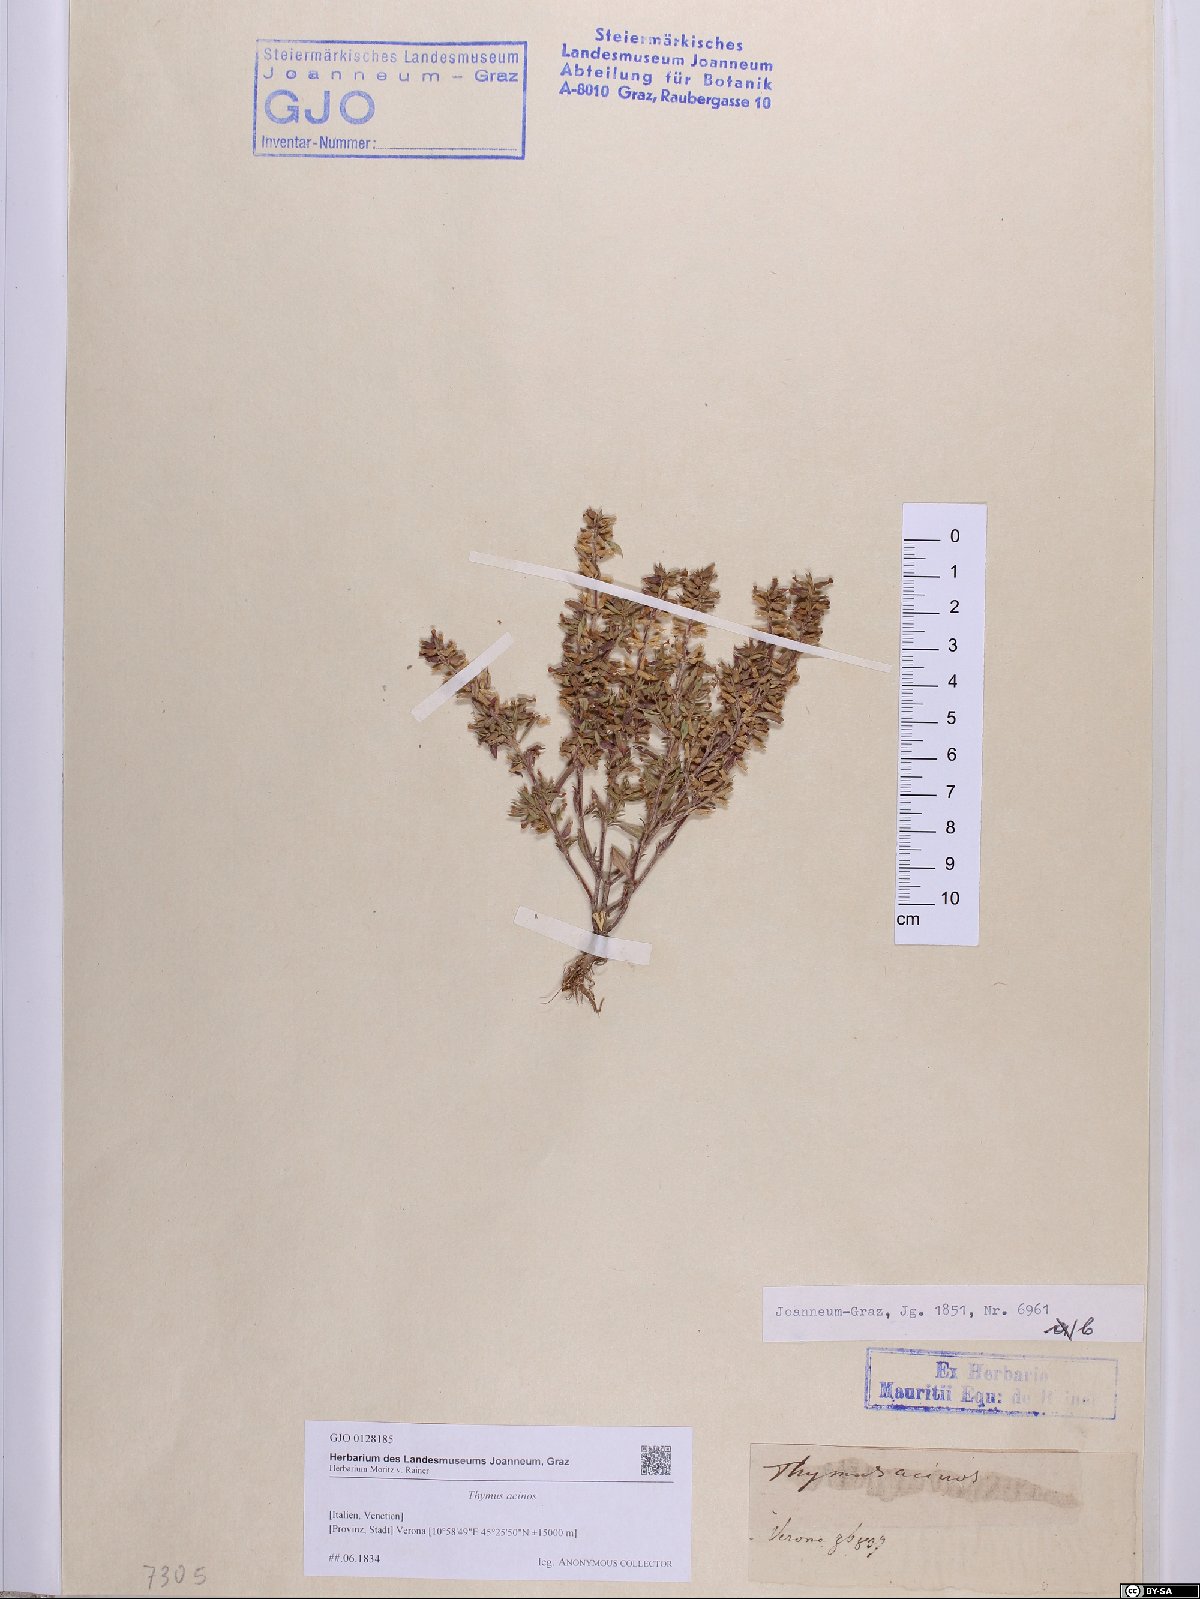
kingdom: Plantae
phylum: Tracheophyta
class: Magnoliopsida
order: Lamiales
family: Lamiaceae
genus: Clinopodium
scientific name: Clinopodium acinos
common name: Basil thyme
